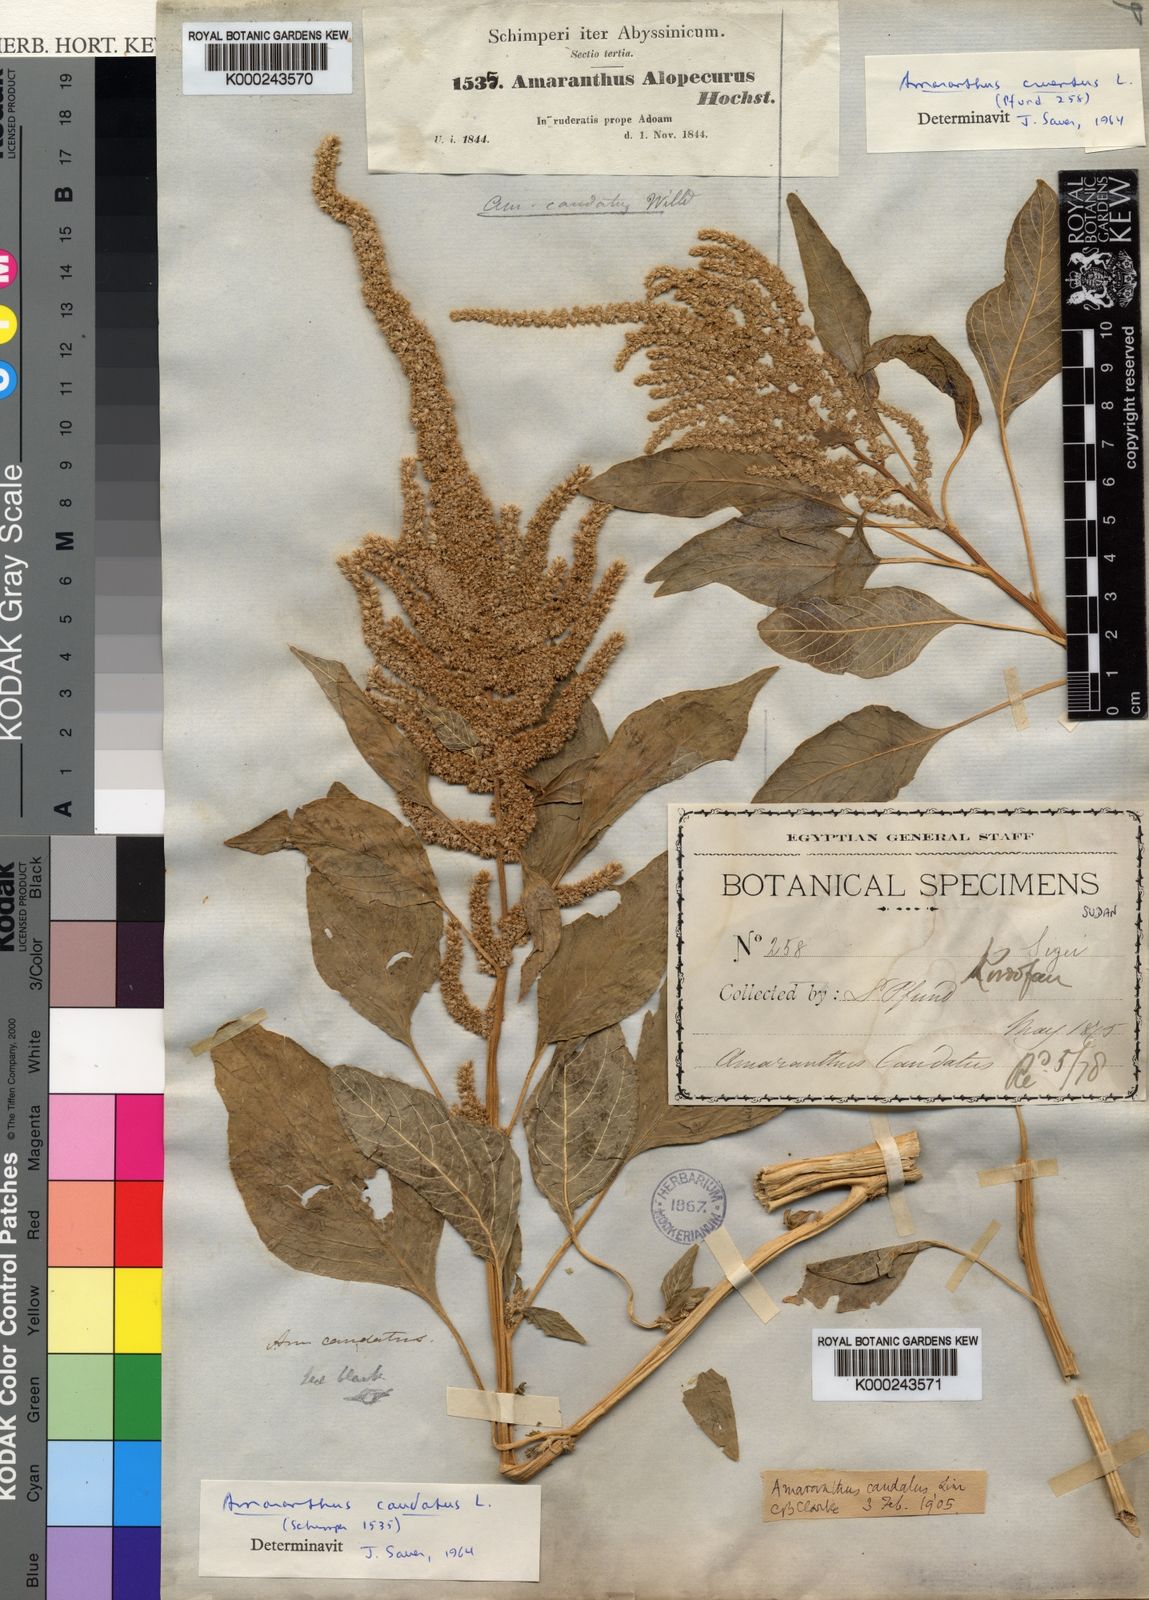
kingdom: Plantae
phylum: Tracheophyta
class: Magnoliopsida
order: Caryophyllales
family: Amaranthaceae
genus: Amaranthus
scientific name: Amaranthus caudatus
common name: Love-lies-bleeding
